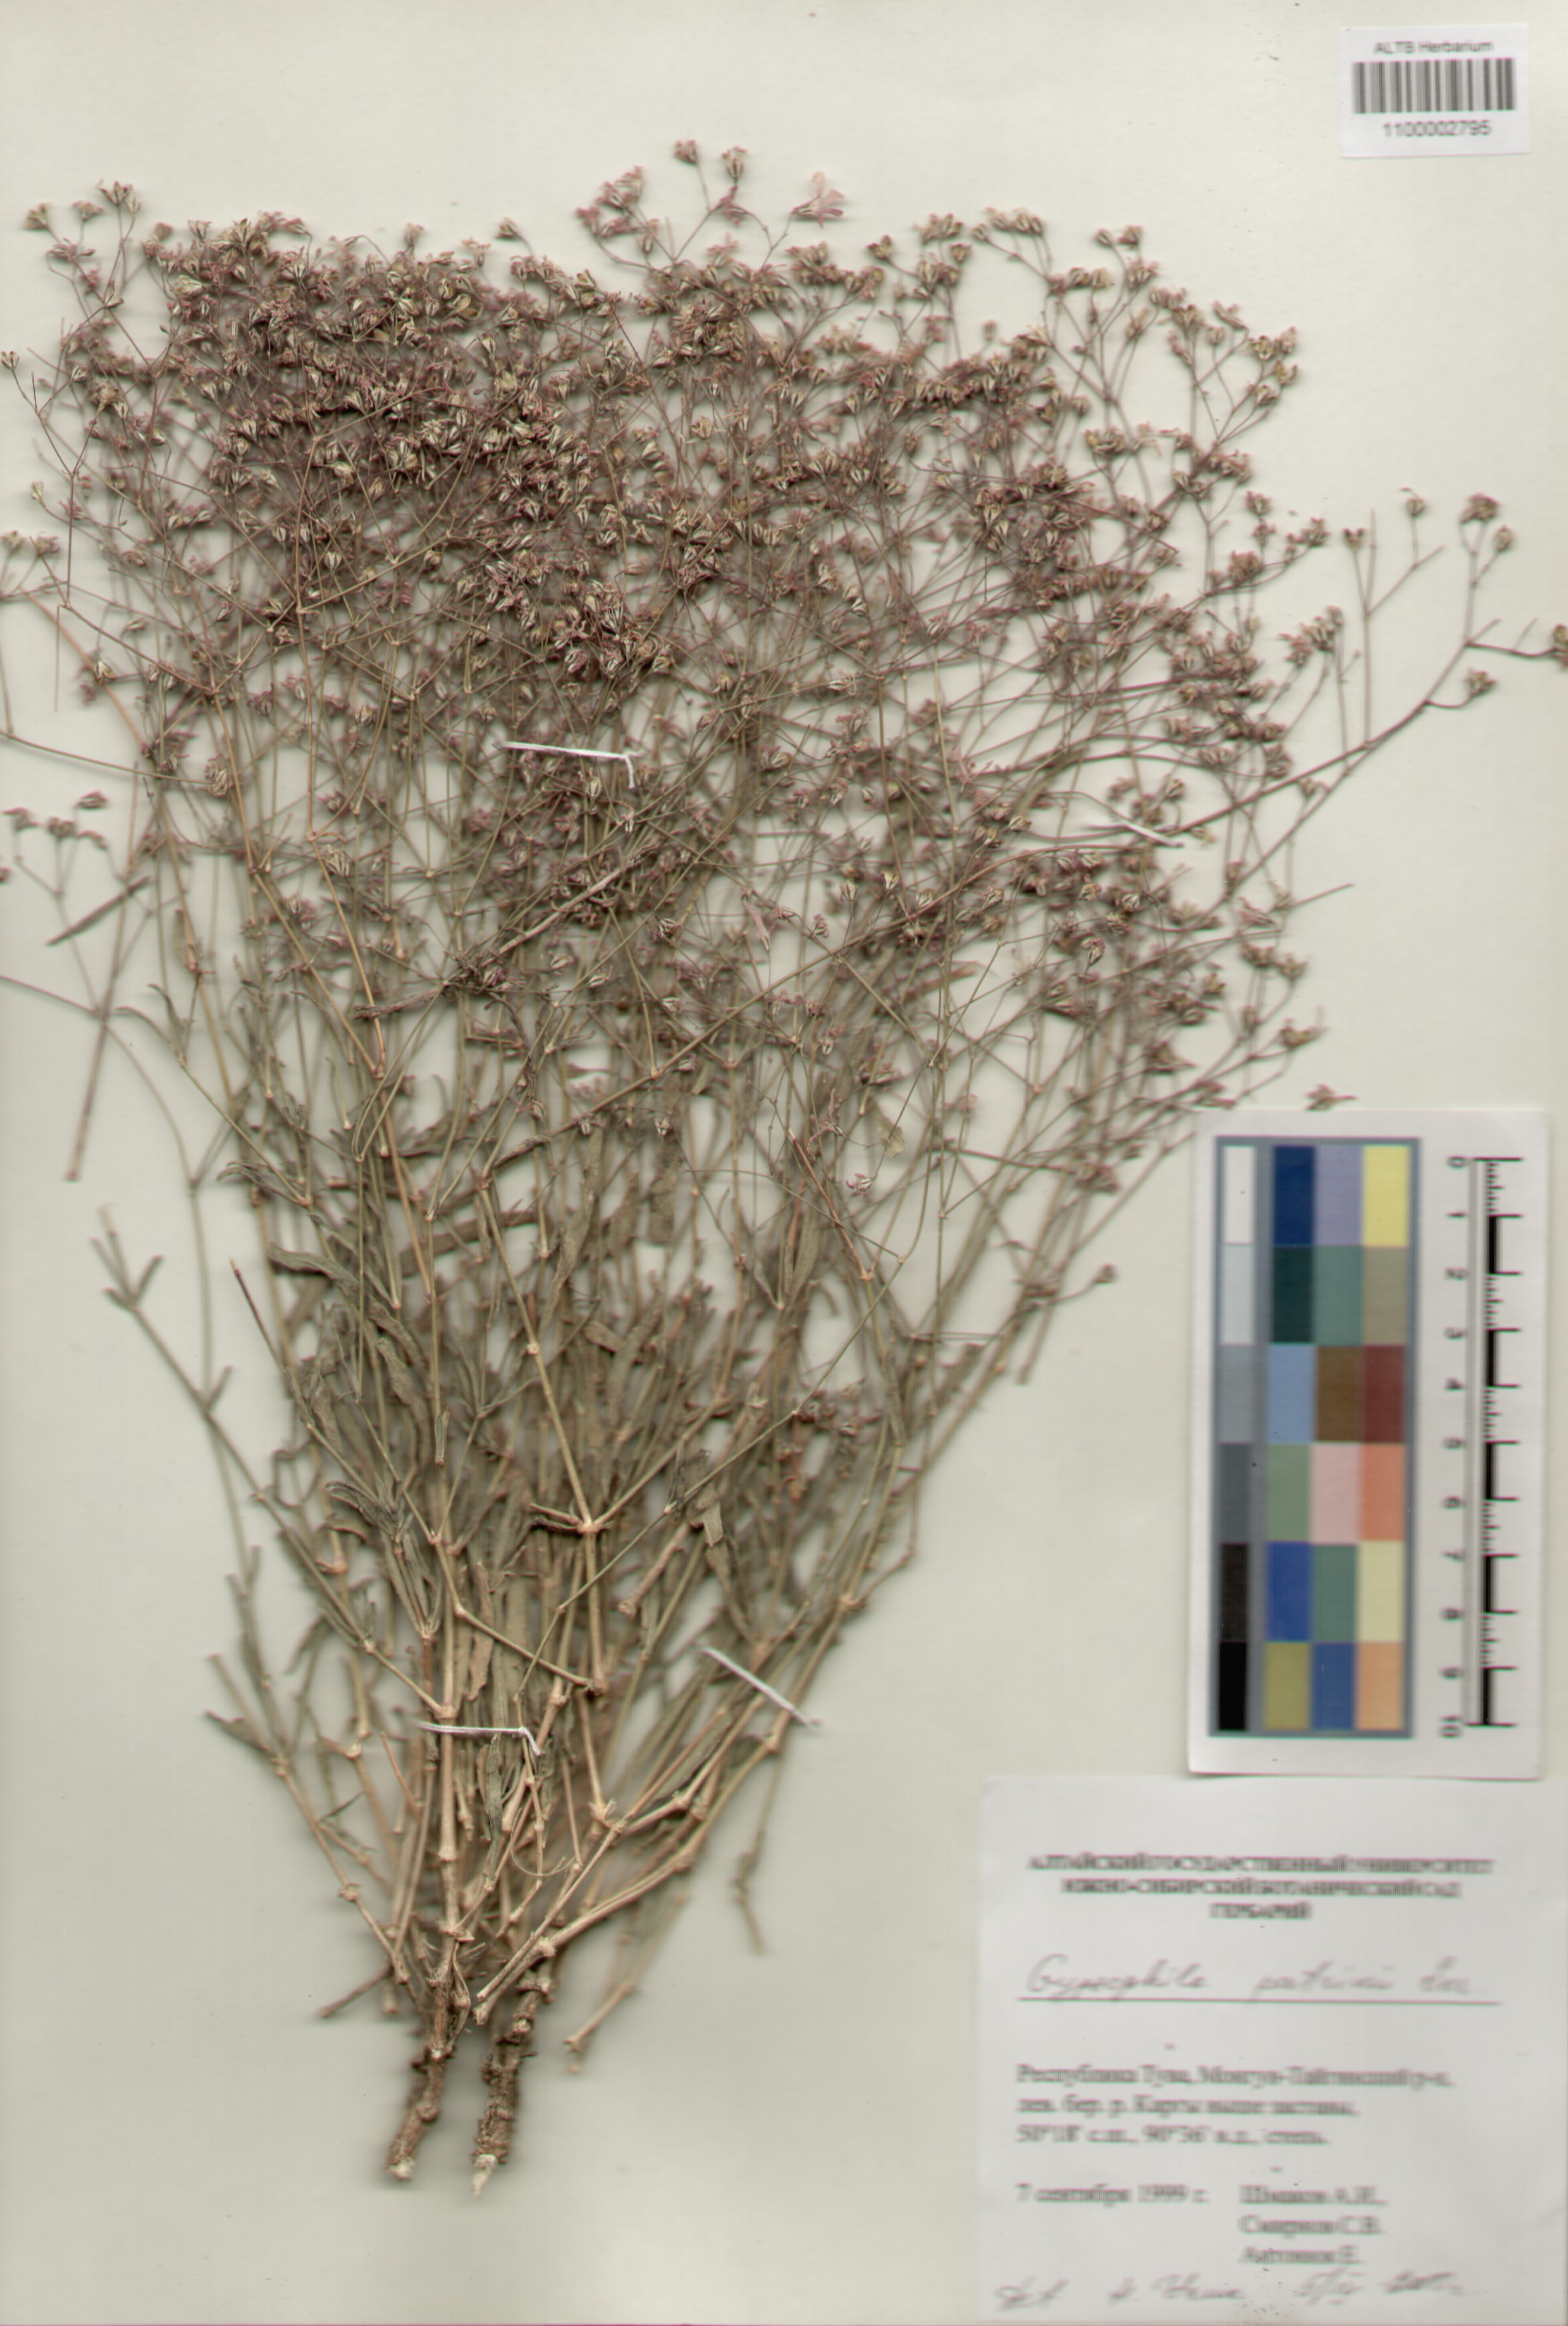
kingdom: Plantae
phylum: Tracheophyta
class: Magnoliopsida
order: Caryophyllales
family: Caryophyllaceae
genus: Gypsophila
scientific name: Gypsophila patrinii
